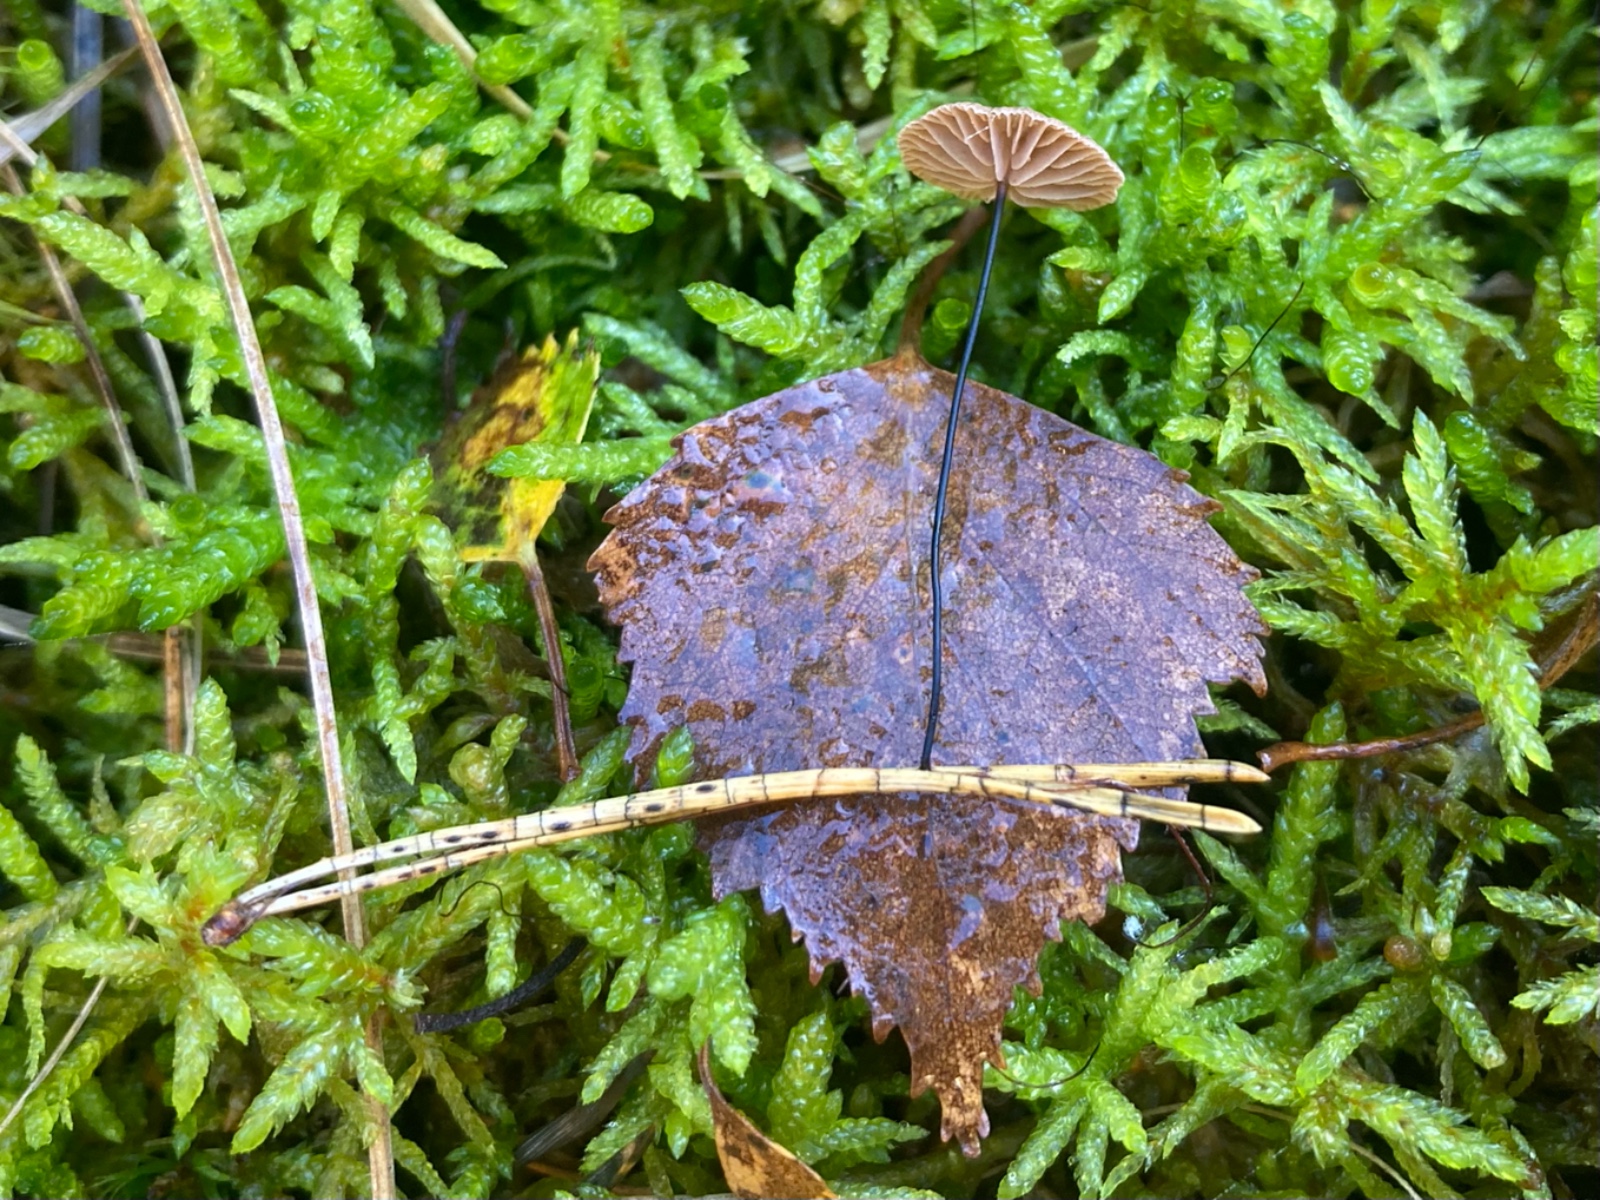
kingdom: Fungi
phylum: Basidiomycota
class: Agaricomycetes
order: Agaricales
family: Omphalotaceae
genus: Gymnopus
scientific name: Gymnopus androsaceus
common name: trådstokket fladhat
